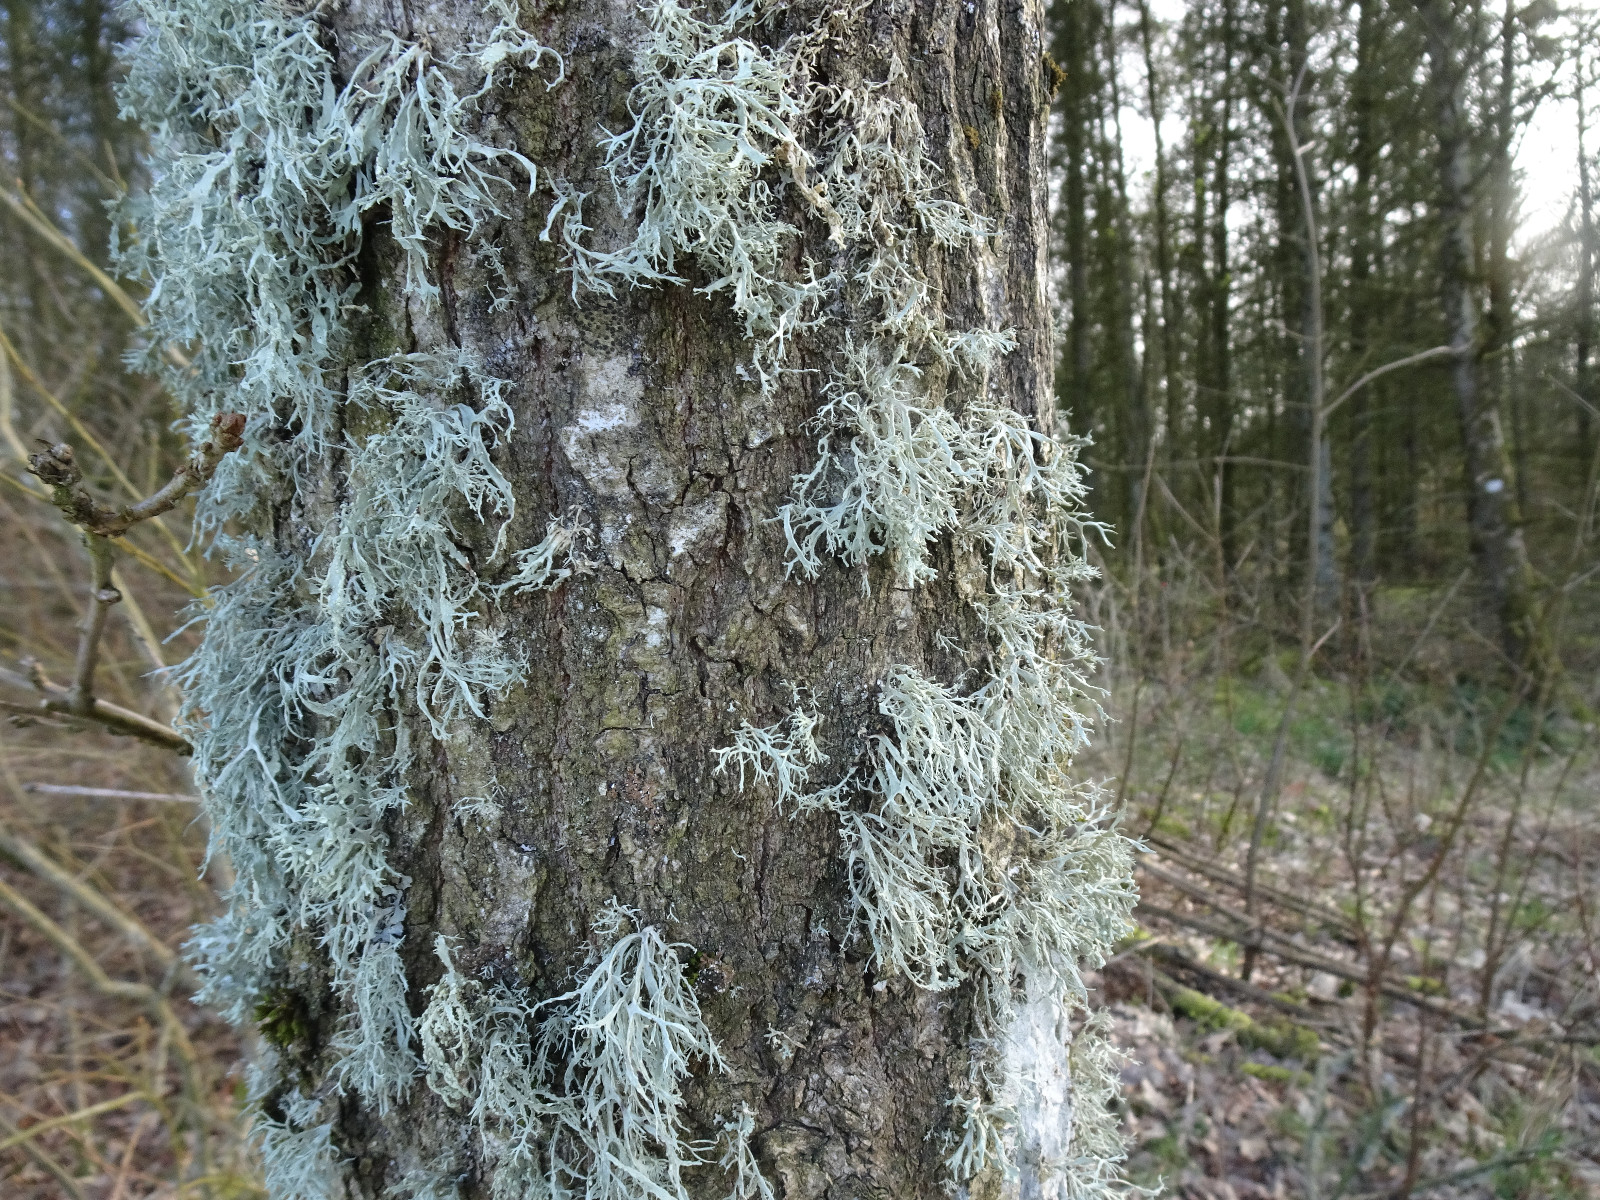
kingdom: Fungi
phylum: Ascomycota
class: Lecanoromycetes
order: Lecanorales
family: Ramalinaceae
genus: Ramalina
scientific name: Ramalina farinacea
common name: melet grenlav
